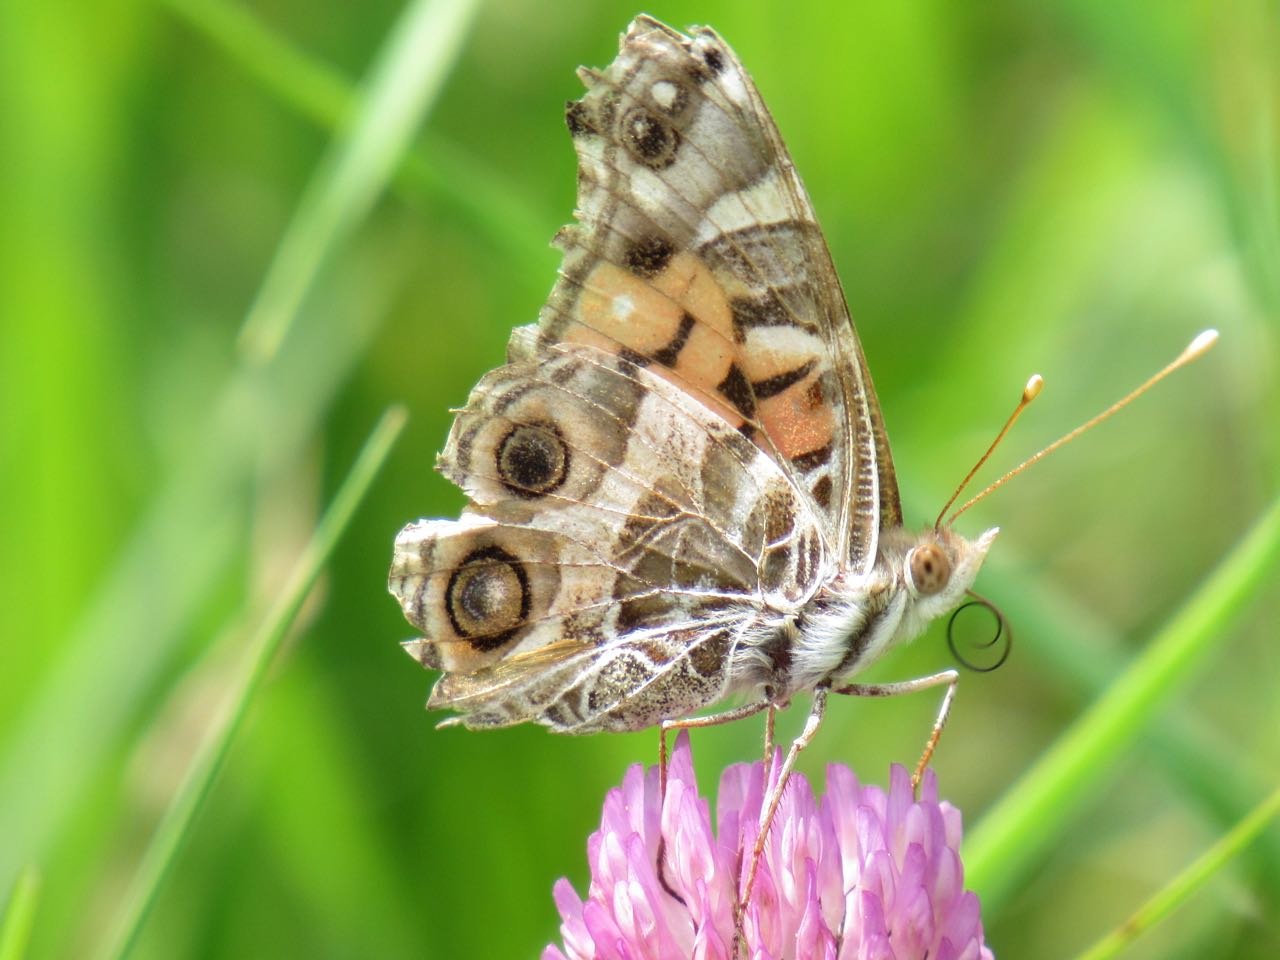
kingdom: Animalia
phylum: Arthropoda
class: Insecta
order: Lepidoptera
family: Nymphalidae
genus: Vanessa
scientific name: Vanessa virginiensis
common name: American Lady
